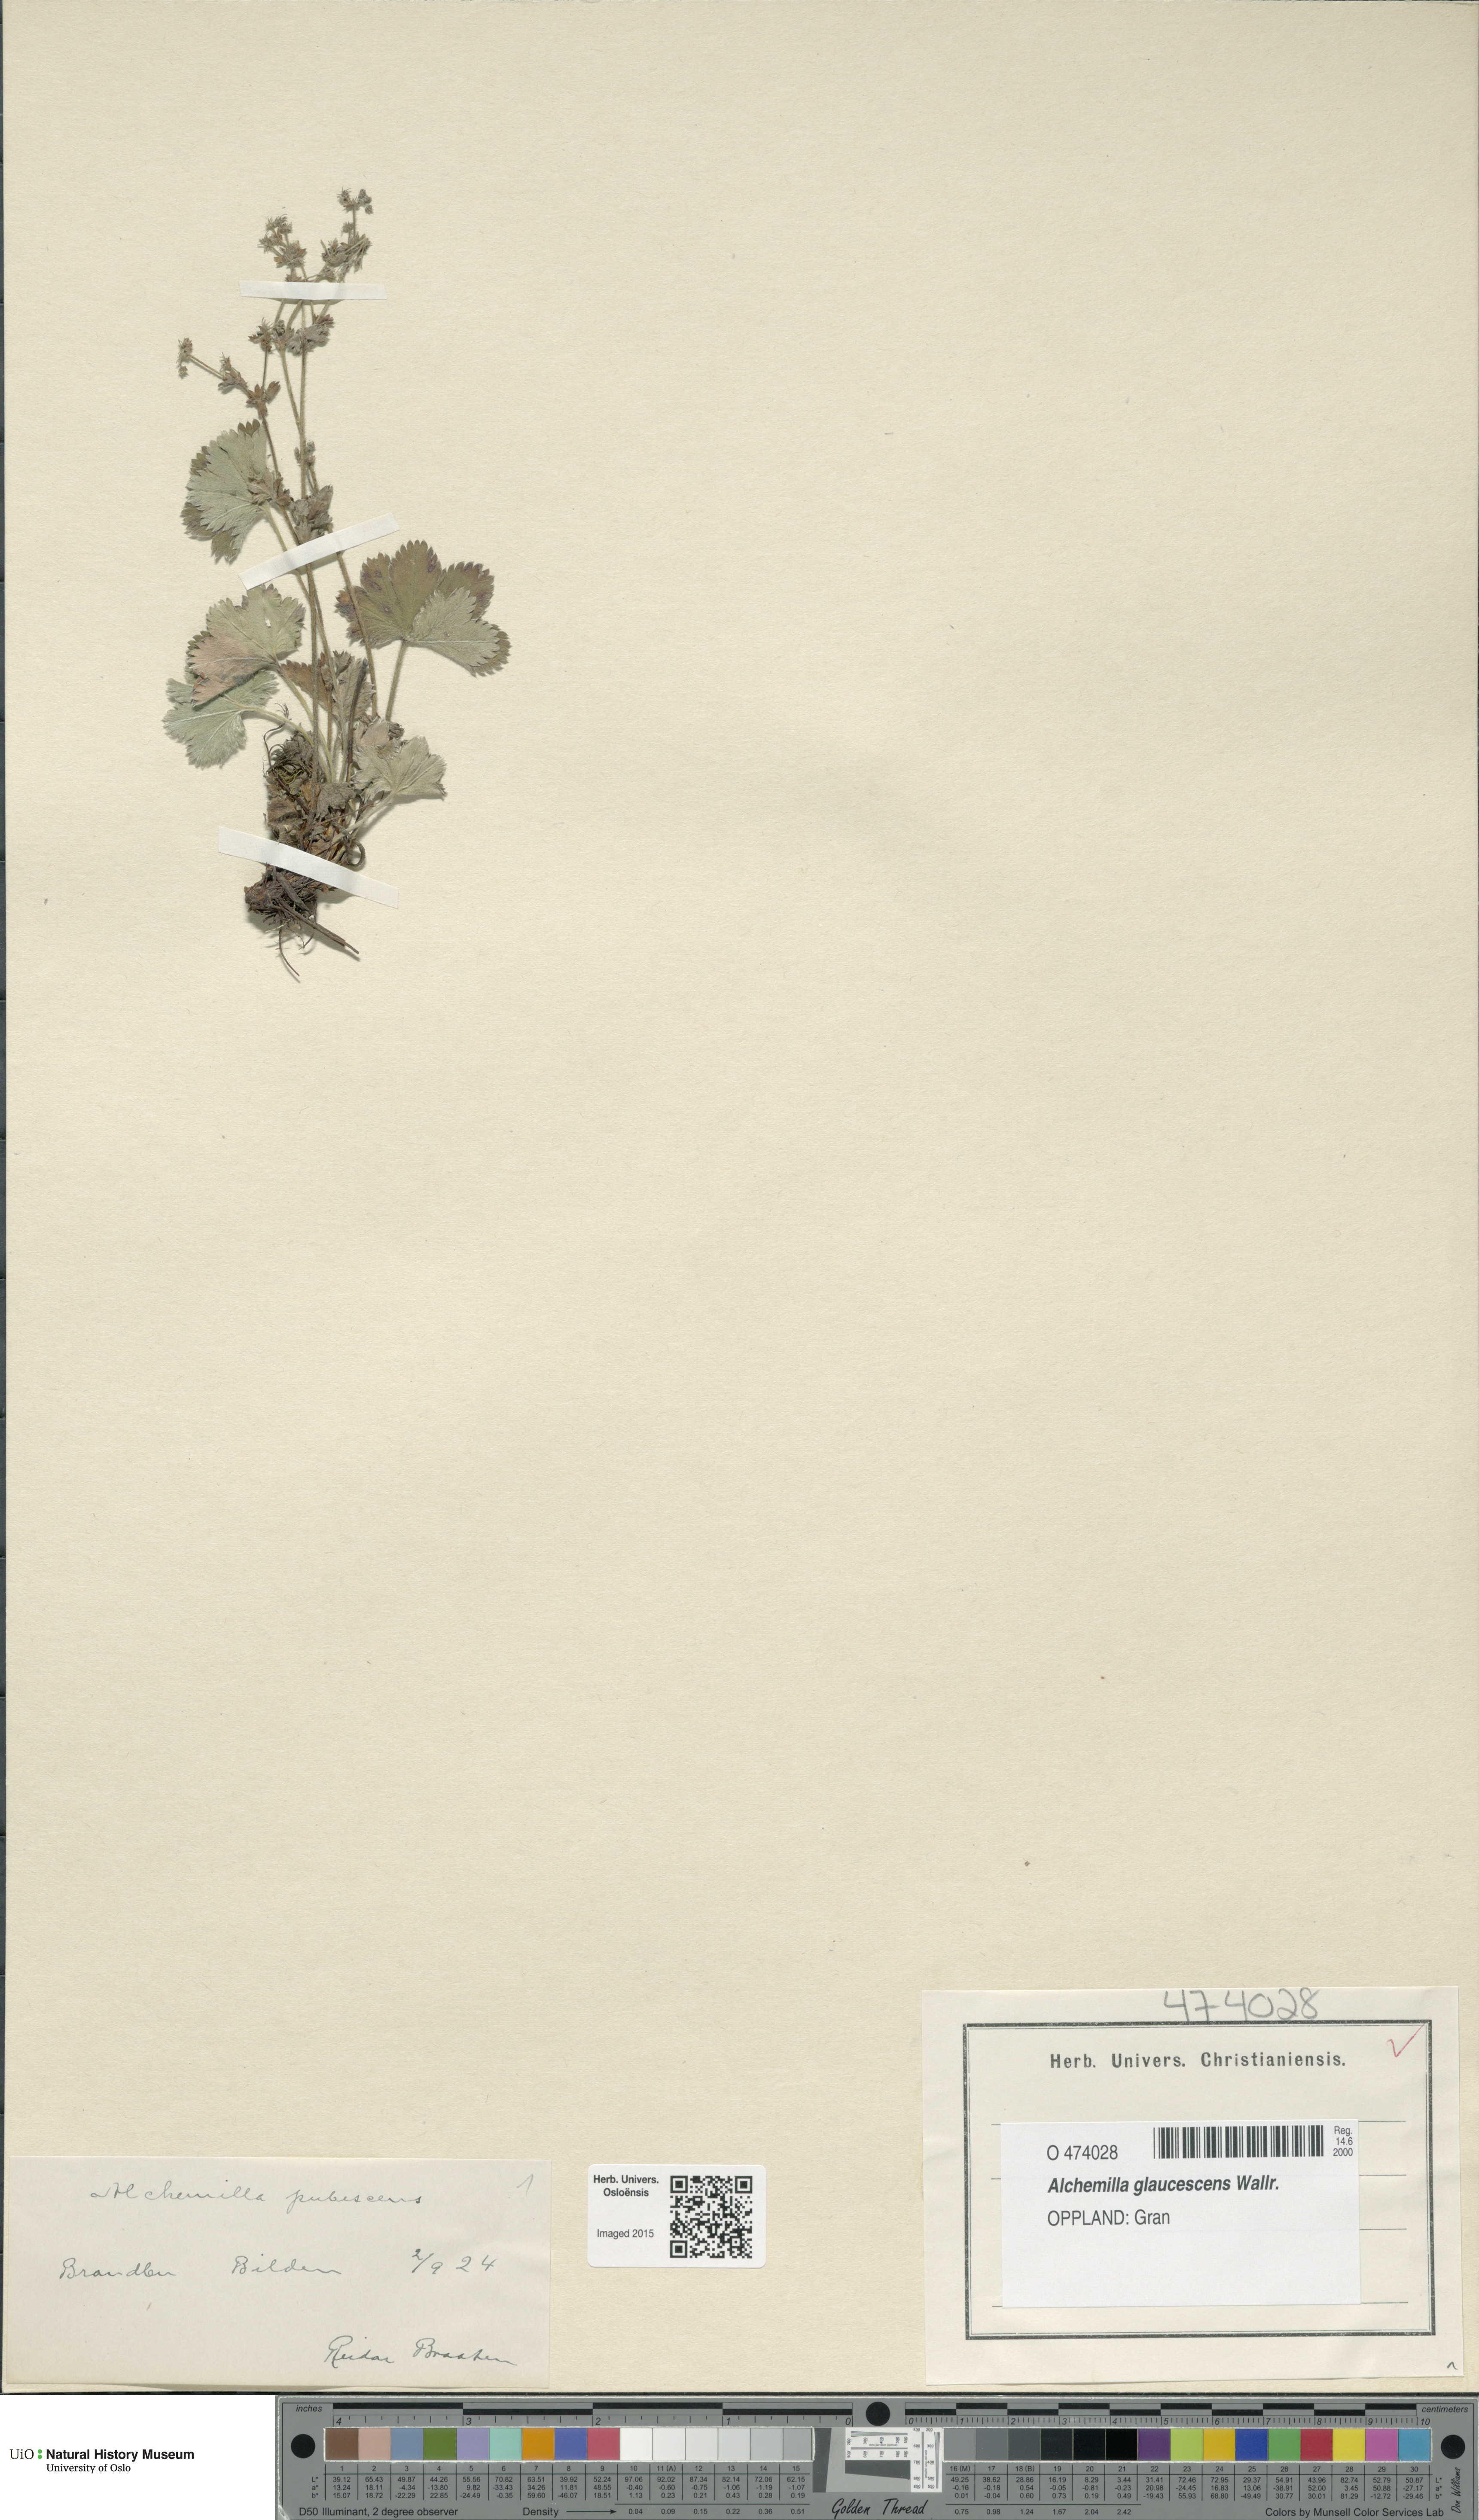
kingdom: Plantae
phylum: Tracheophyta
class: Magnoliopsida
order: Rosales
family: Rosaceae
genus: Alchemilla
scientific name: Alchemilla glaucescens
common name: Silky lady's mantle
